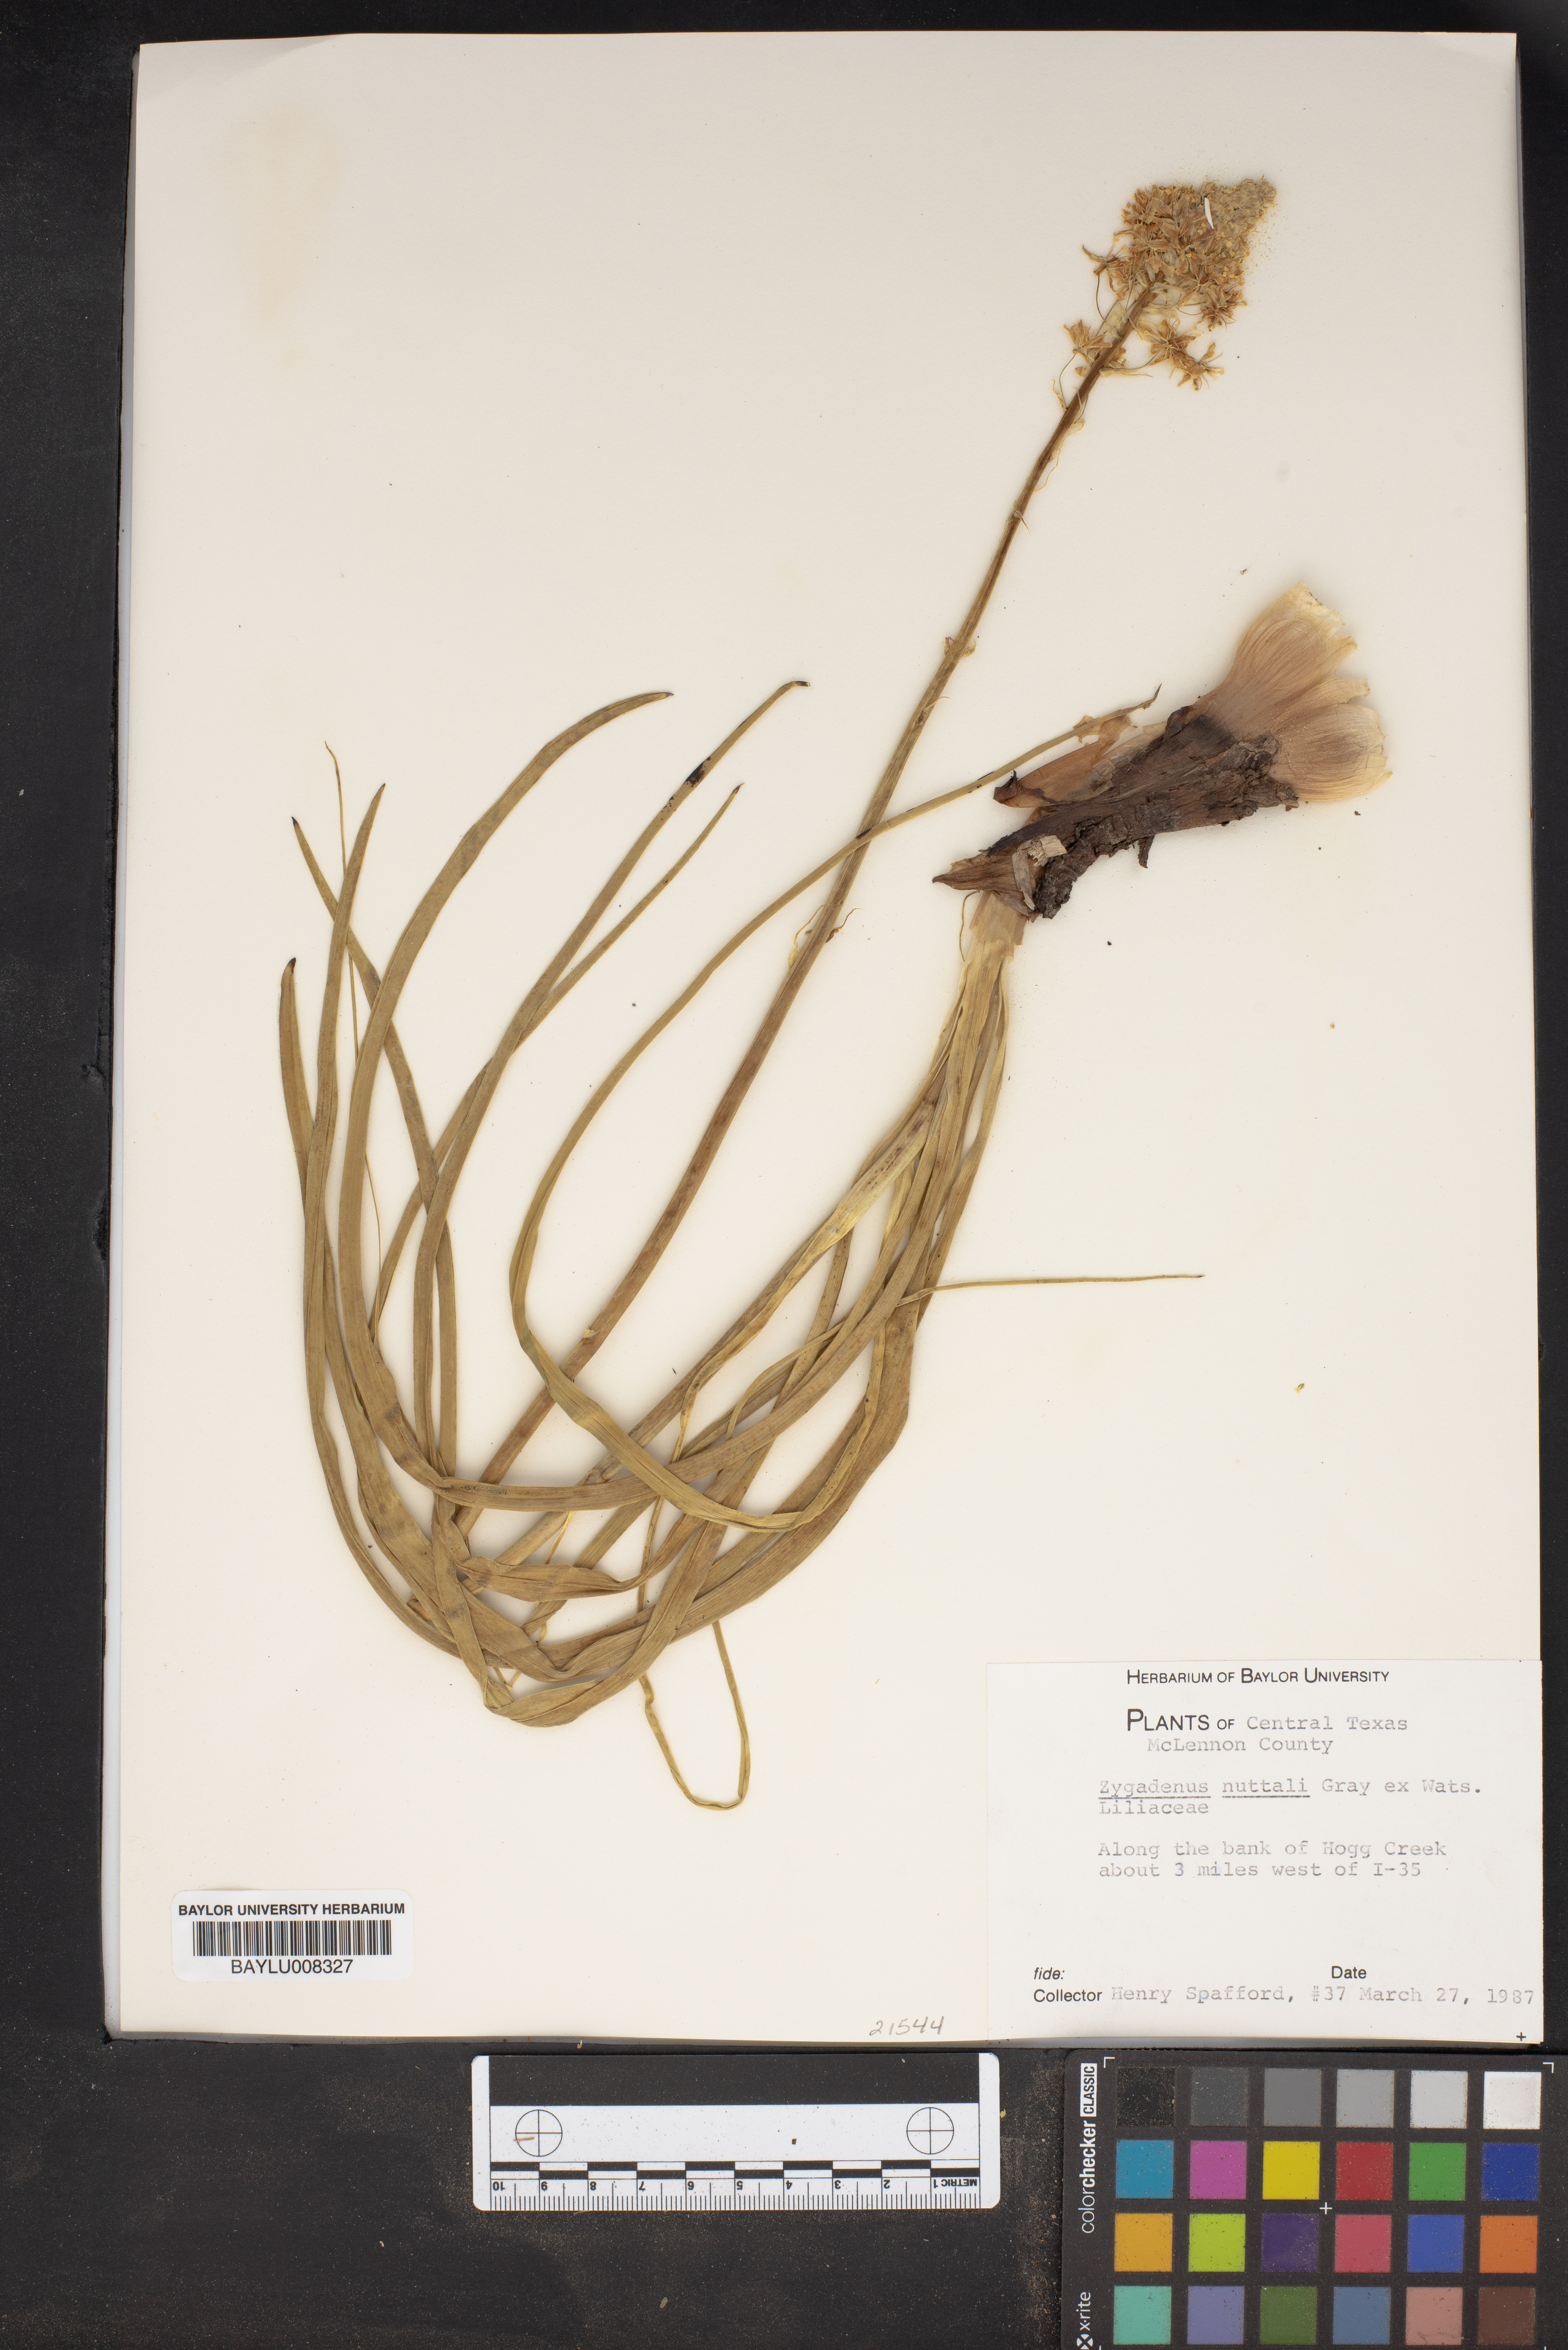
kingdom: Plantae
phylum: Tracheophyta
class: Liliopsida
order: Liliales
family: Melanthiaceae
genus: Toxicoscordion
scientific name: Toxicoscordion nuttallii
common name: Poison sego
